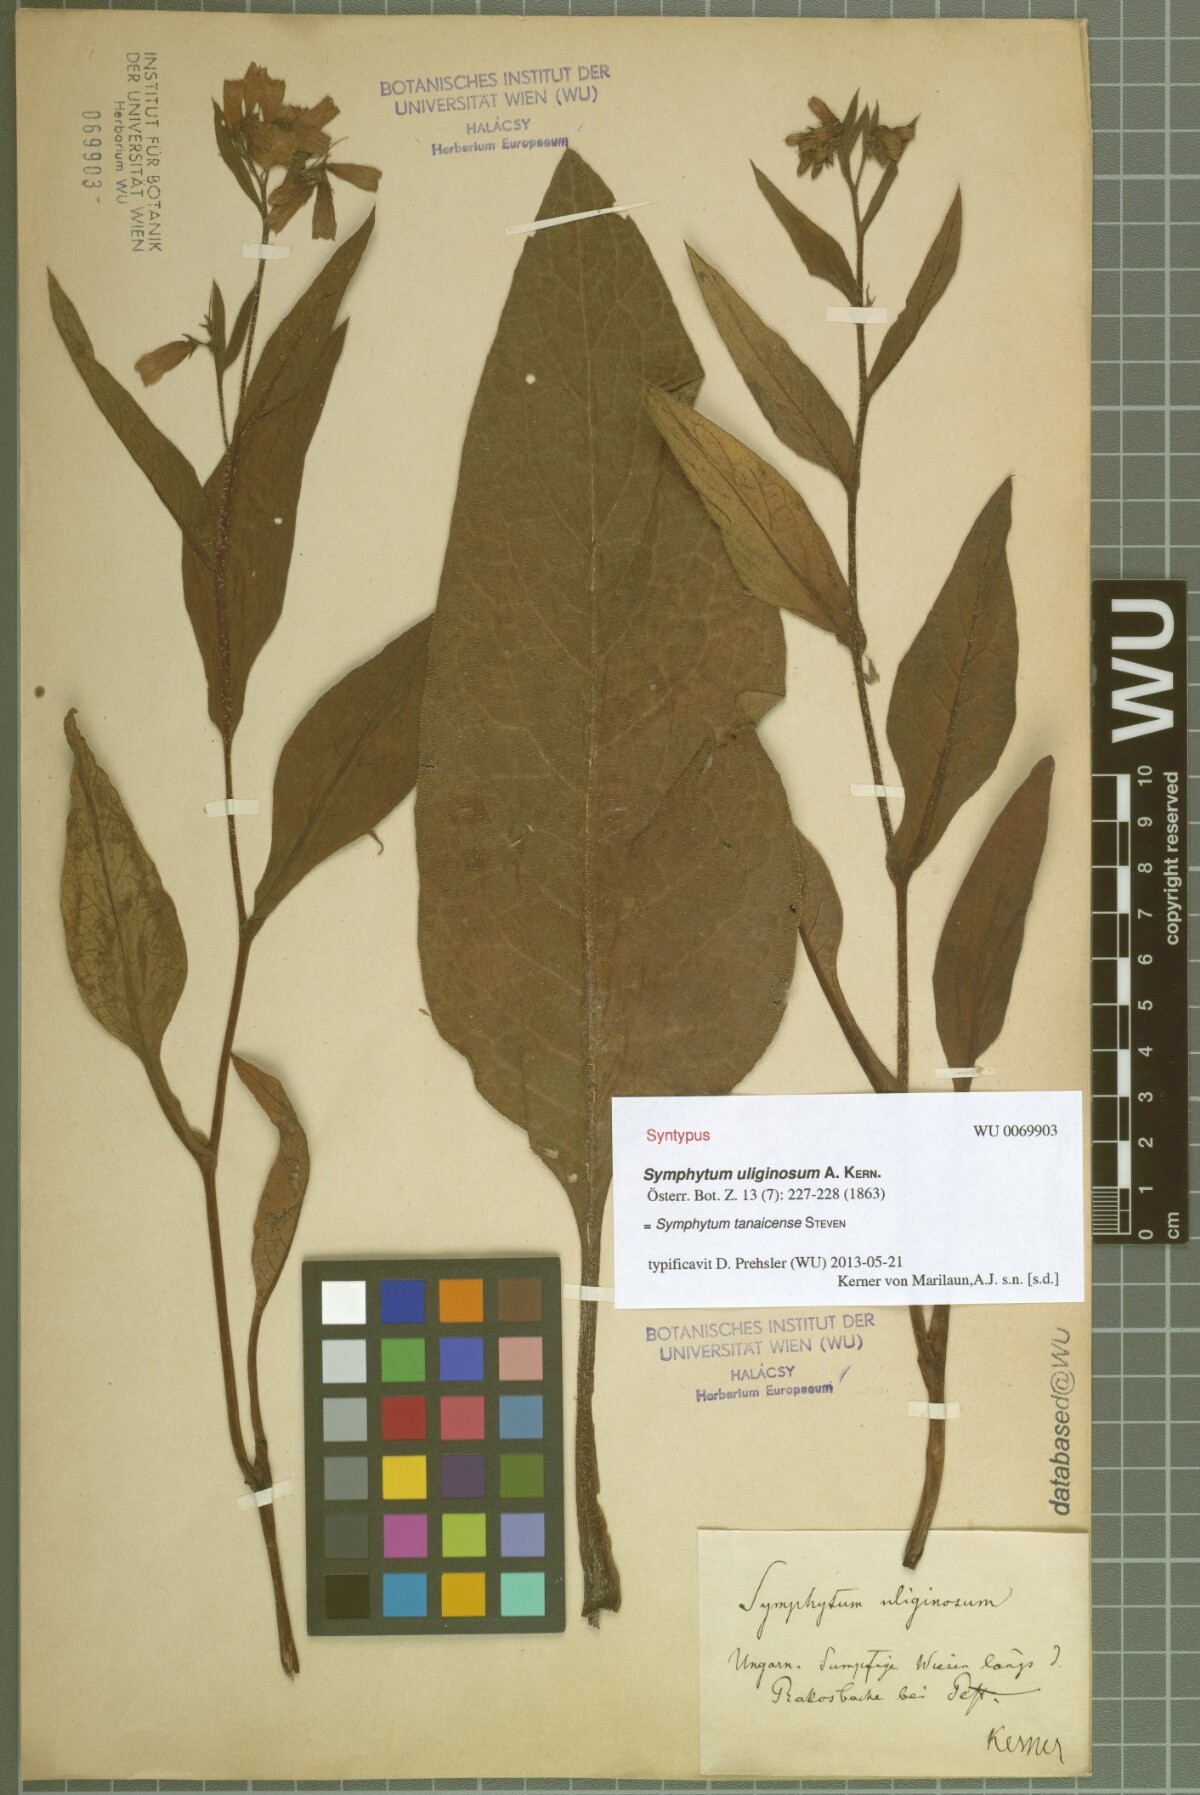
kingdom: Plantae
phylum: Tracheophyta
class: Magnoliopsida
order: Boraginales
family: Boraginaceae
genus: Symphytum
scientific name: Symphytum tanaicense
